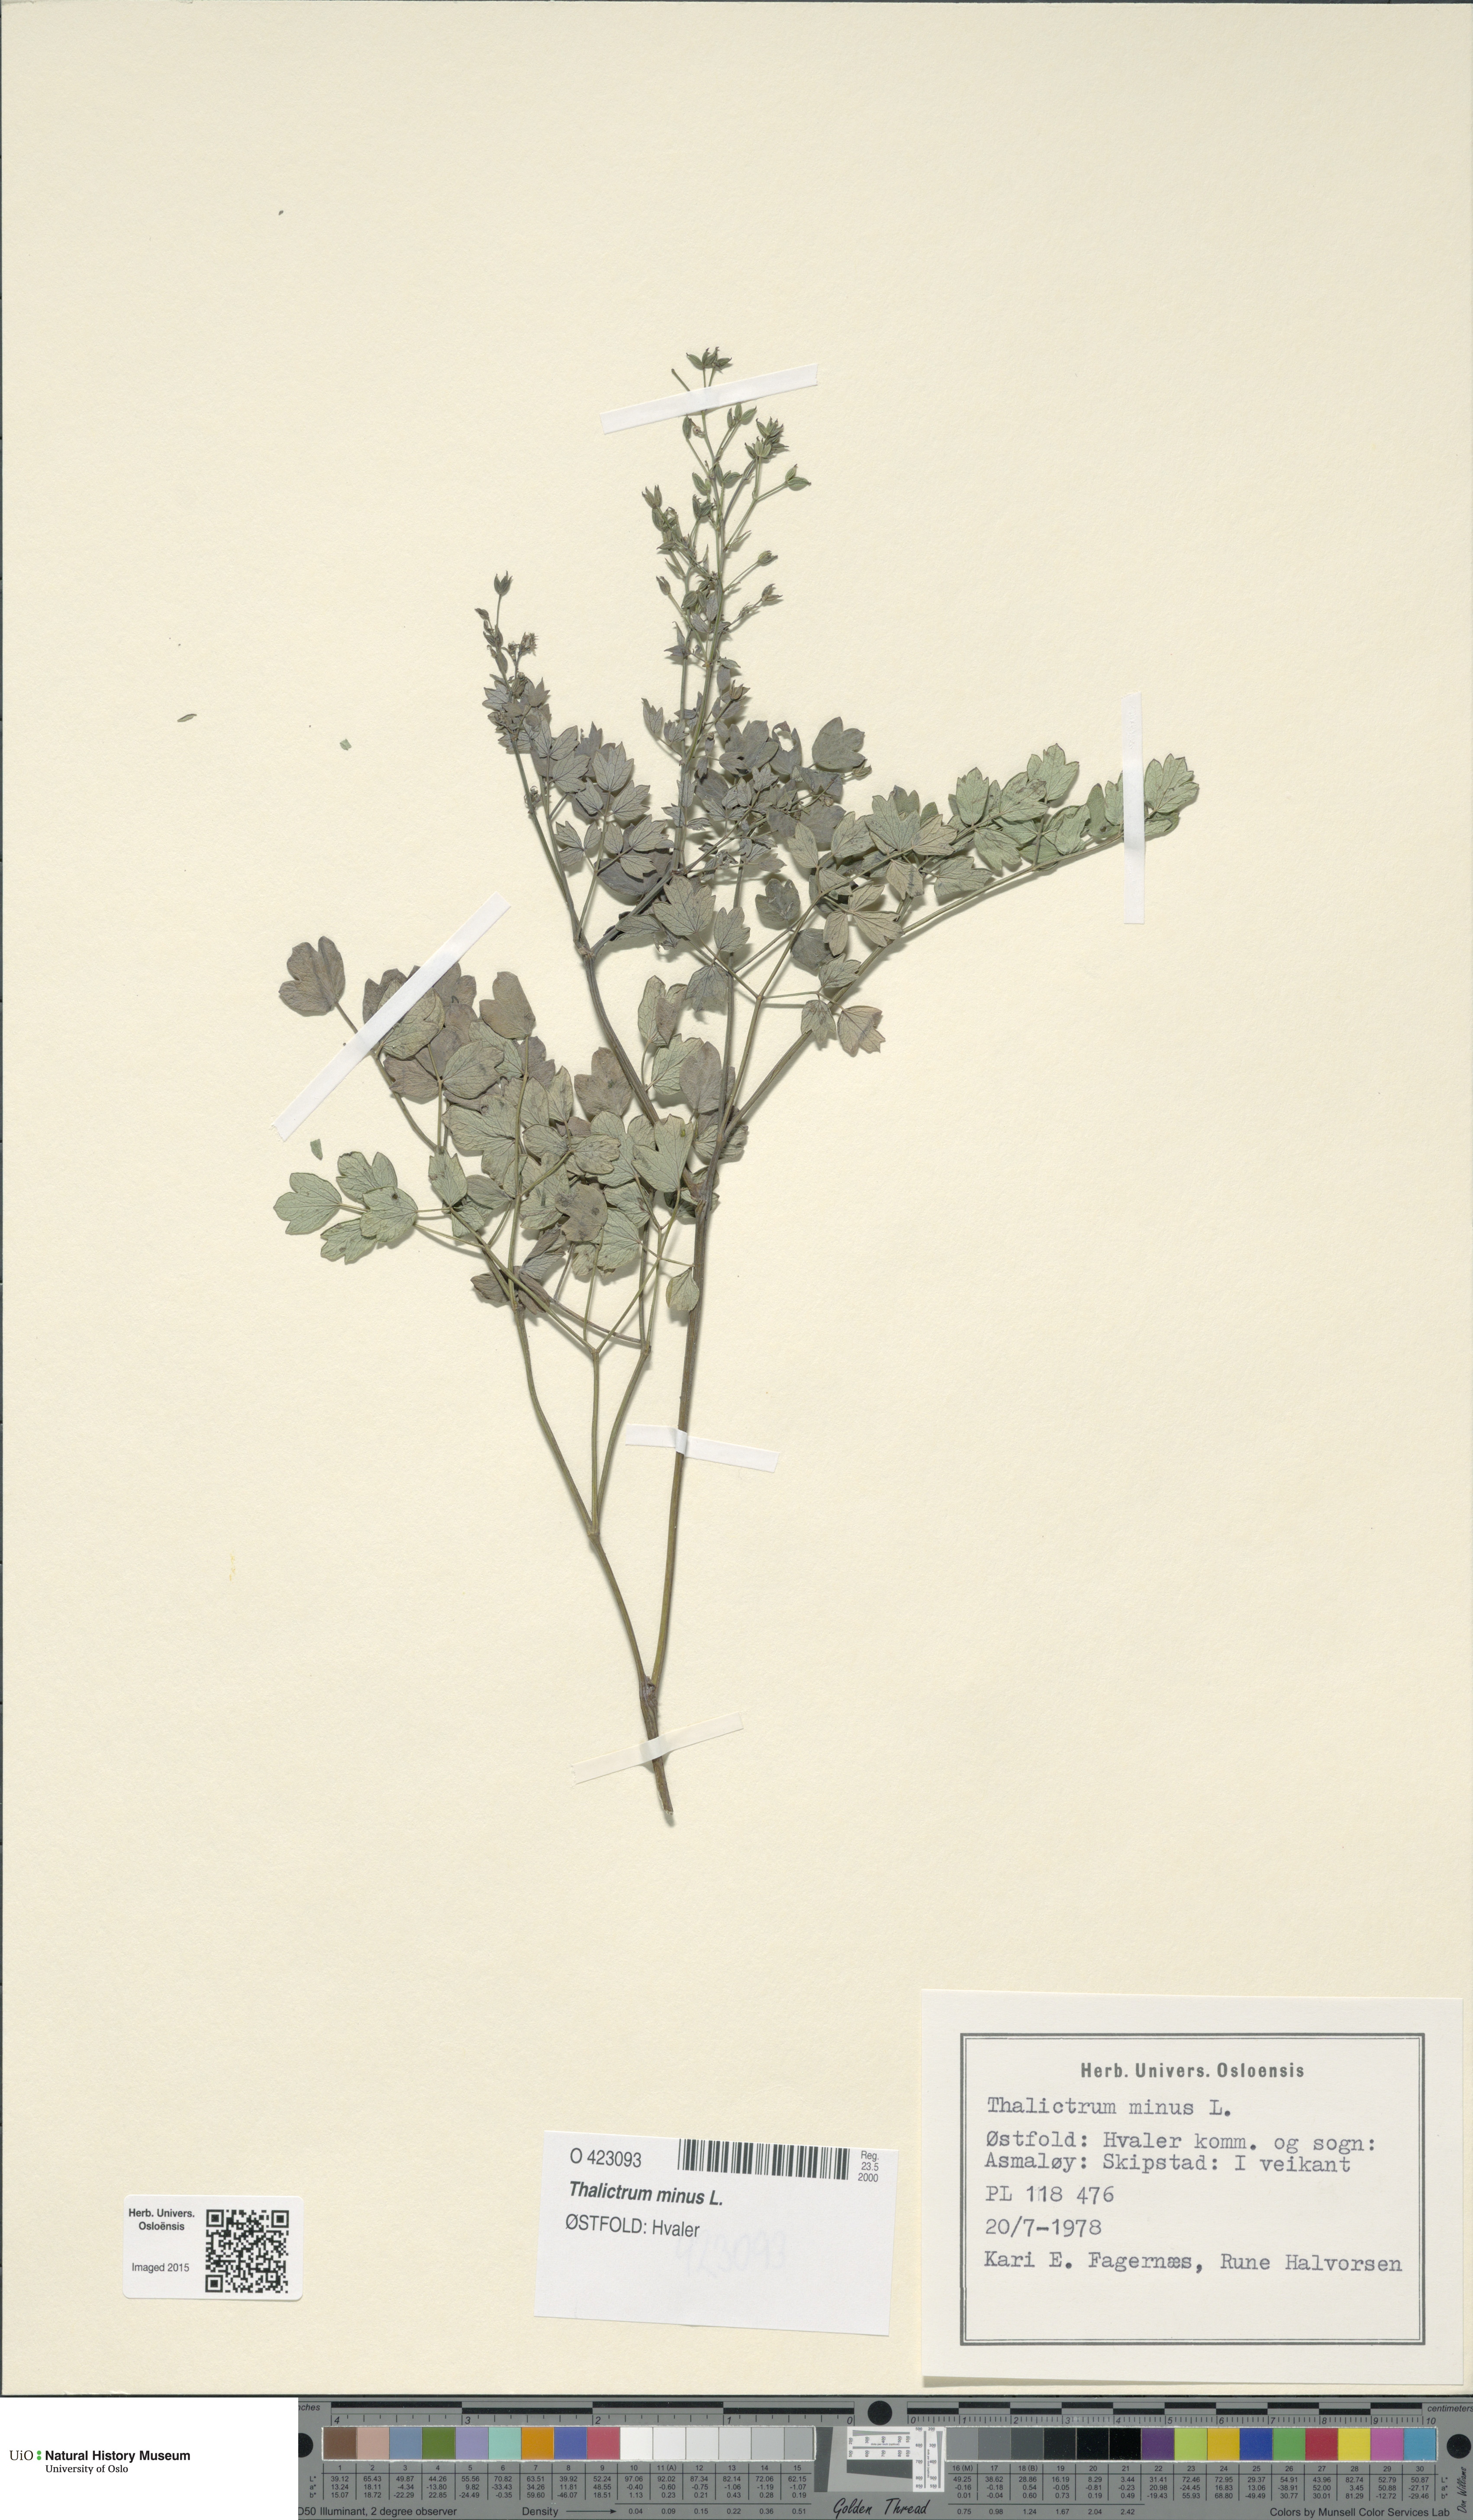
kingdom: Plantae
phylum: Tracheophyta
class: Magnoliopsida
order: Ranunculales
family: Ranunculaceae
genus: Thalictrum
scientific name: Thalictrum minus
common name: Lesser meadow-rue
